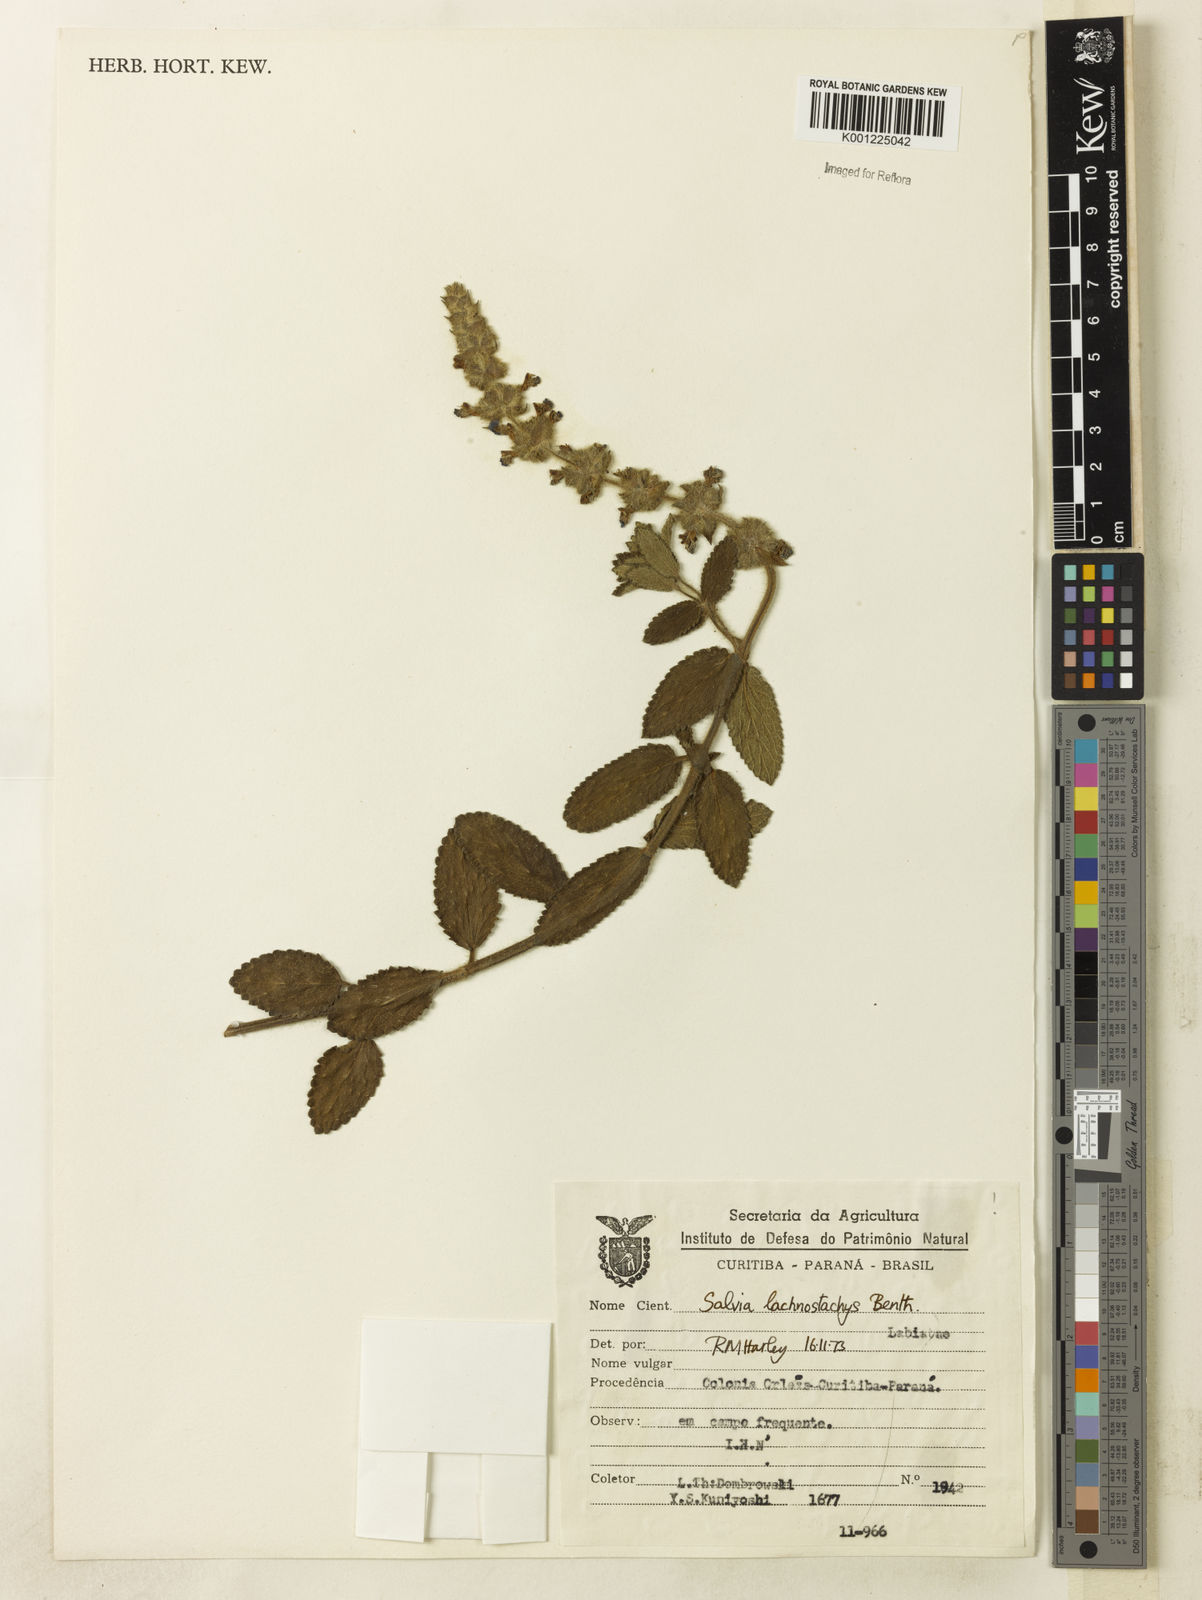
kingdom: Plantae
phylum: Tracheophyta
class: Magnoliopsida
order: Lamiales
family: Lamiaceae
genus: Salvia
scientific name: Salvia lachnostachys
